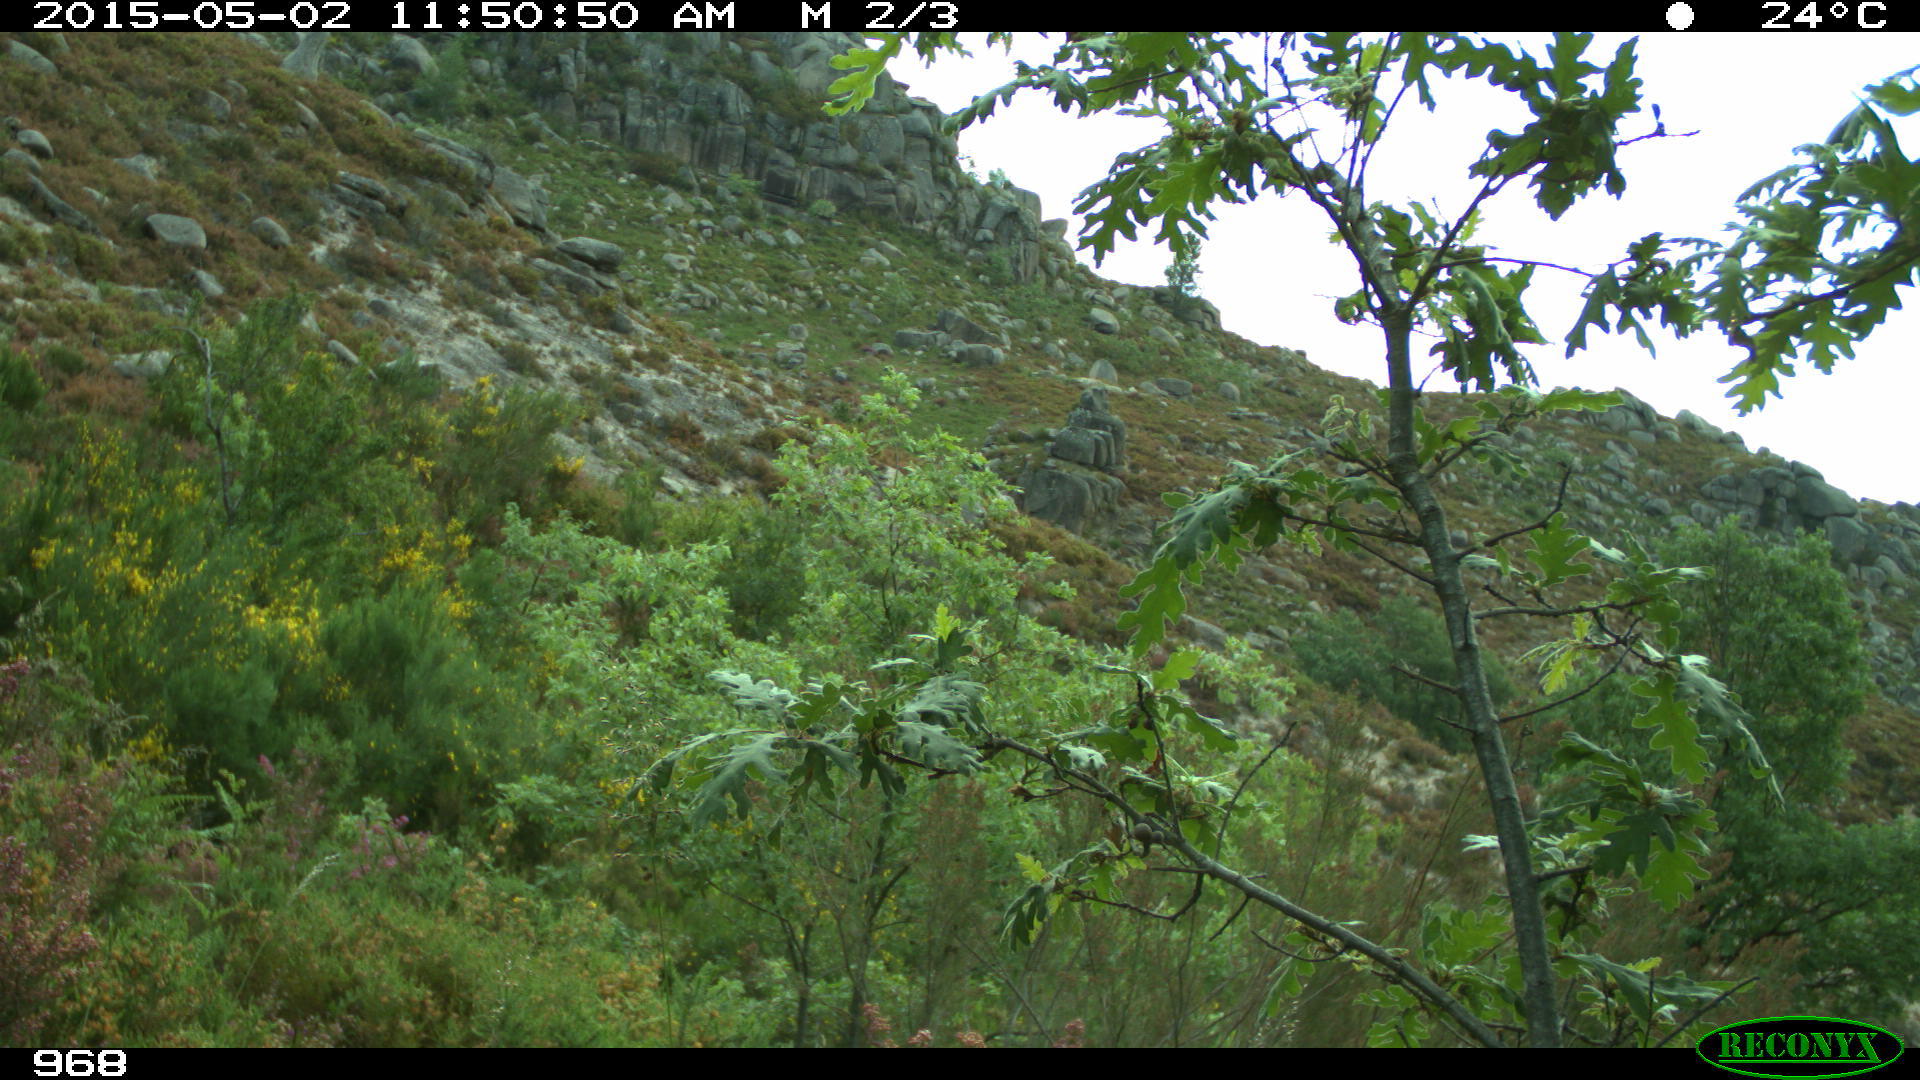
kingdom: Animalia
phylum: Chordata
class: Mammalia
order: Artiodactyla
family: Cervidae
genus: Capreolus
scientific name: Capreolus capreolus
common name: Western roe deer
